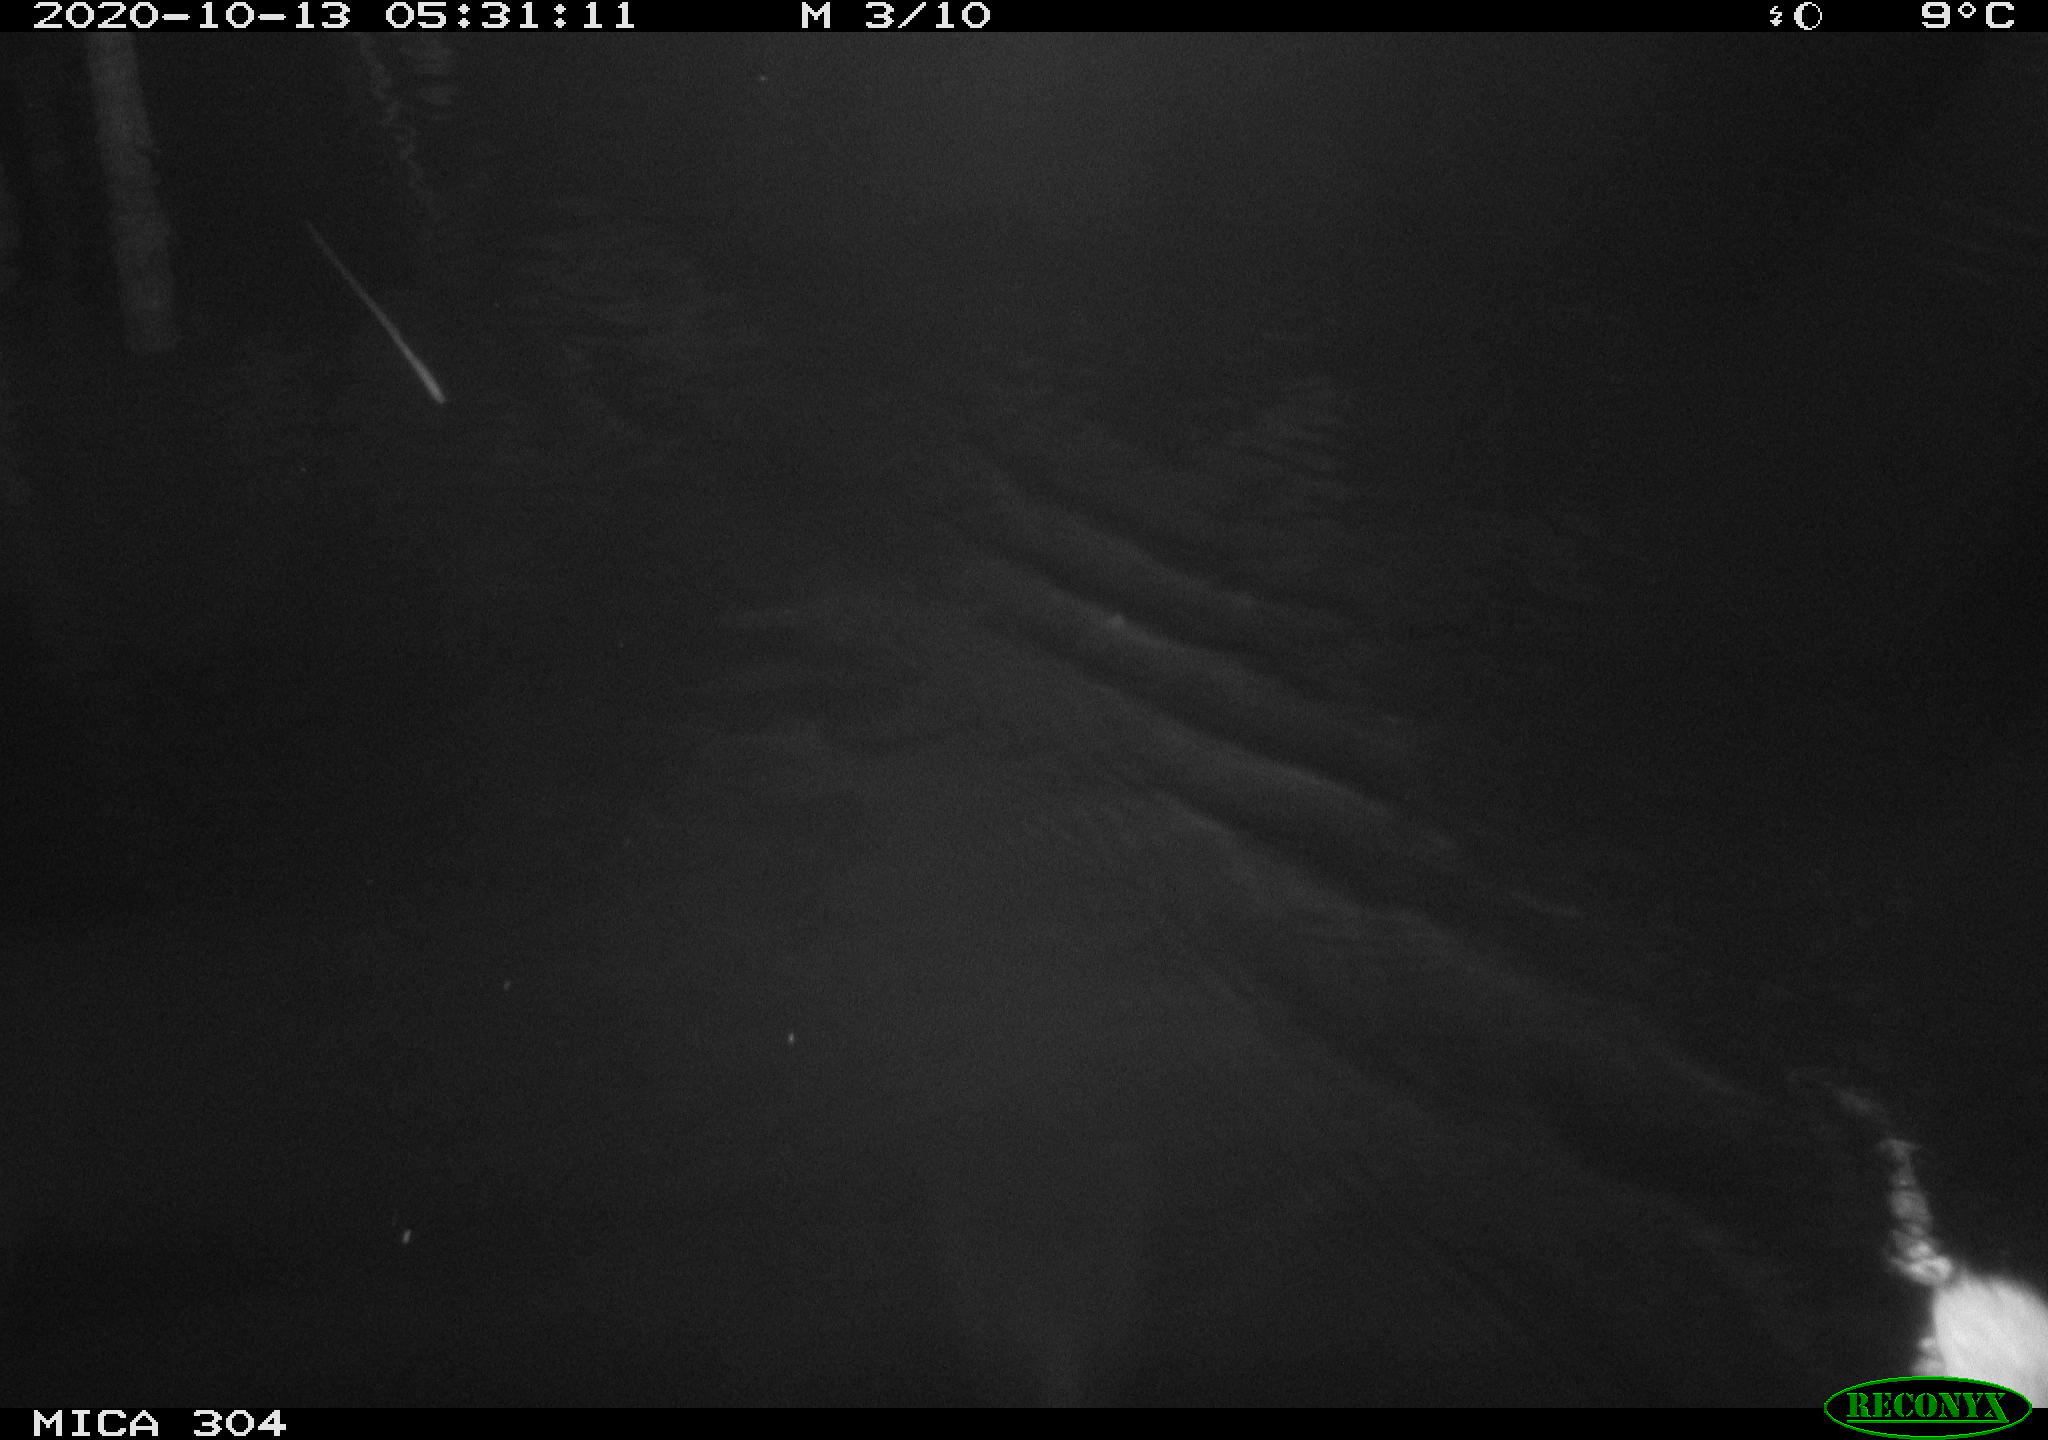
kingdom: Animalia
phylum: Chordata
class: Mammalia
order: Rodentia
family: Cricetidae
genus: Ondatra
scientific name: Ondatra zibethicus
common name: Muskrat
